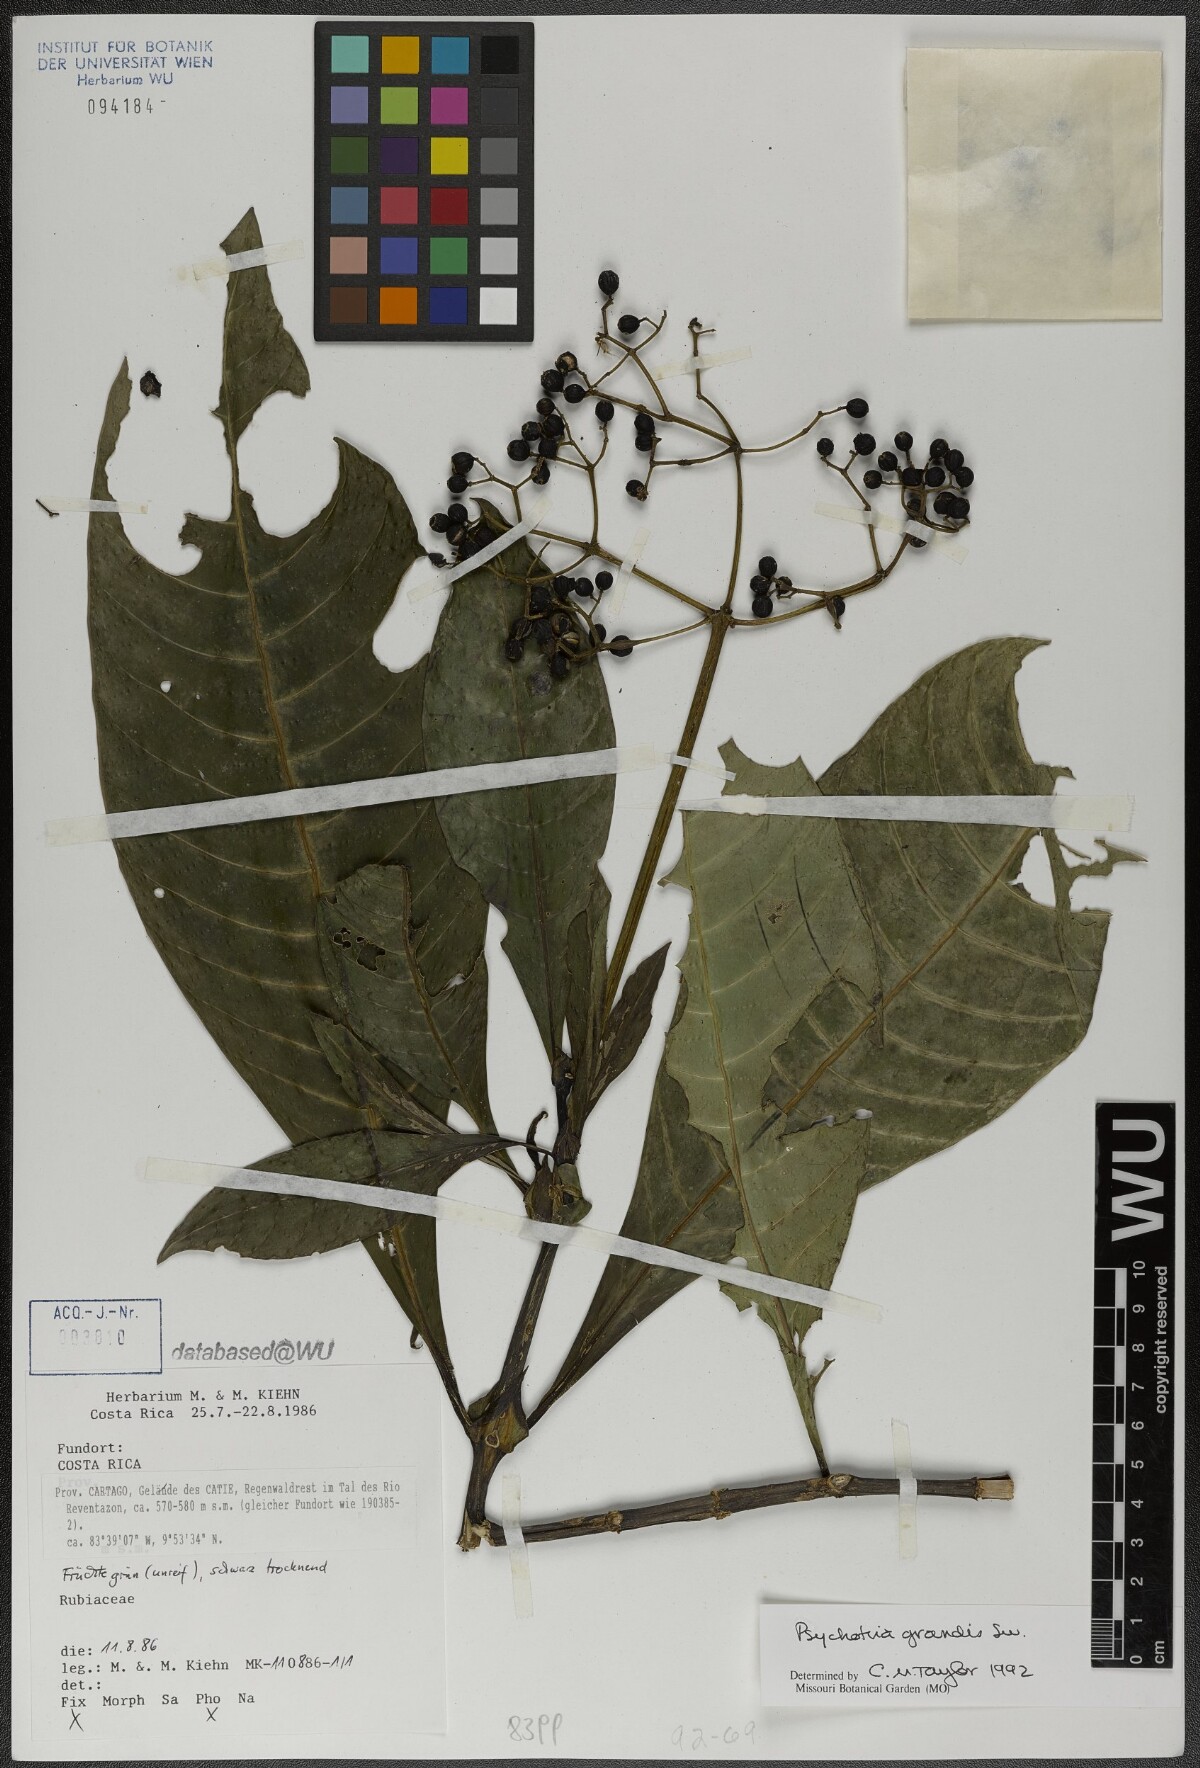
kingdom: Plantae
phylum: Tracheophyta
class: Magnoliopsida
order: Gentianales
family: Rubiaceae
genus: Psychotria
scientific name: Psychotria grandis
